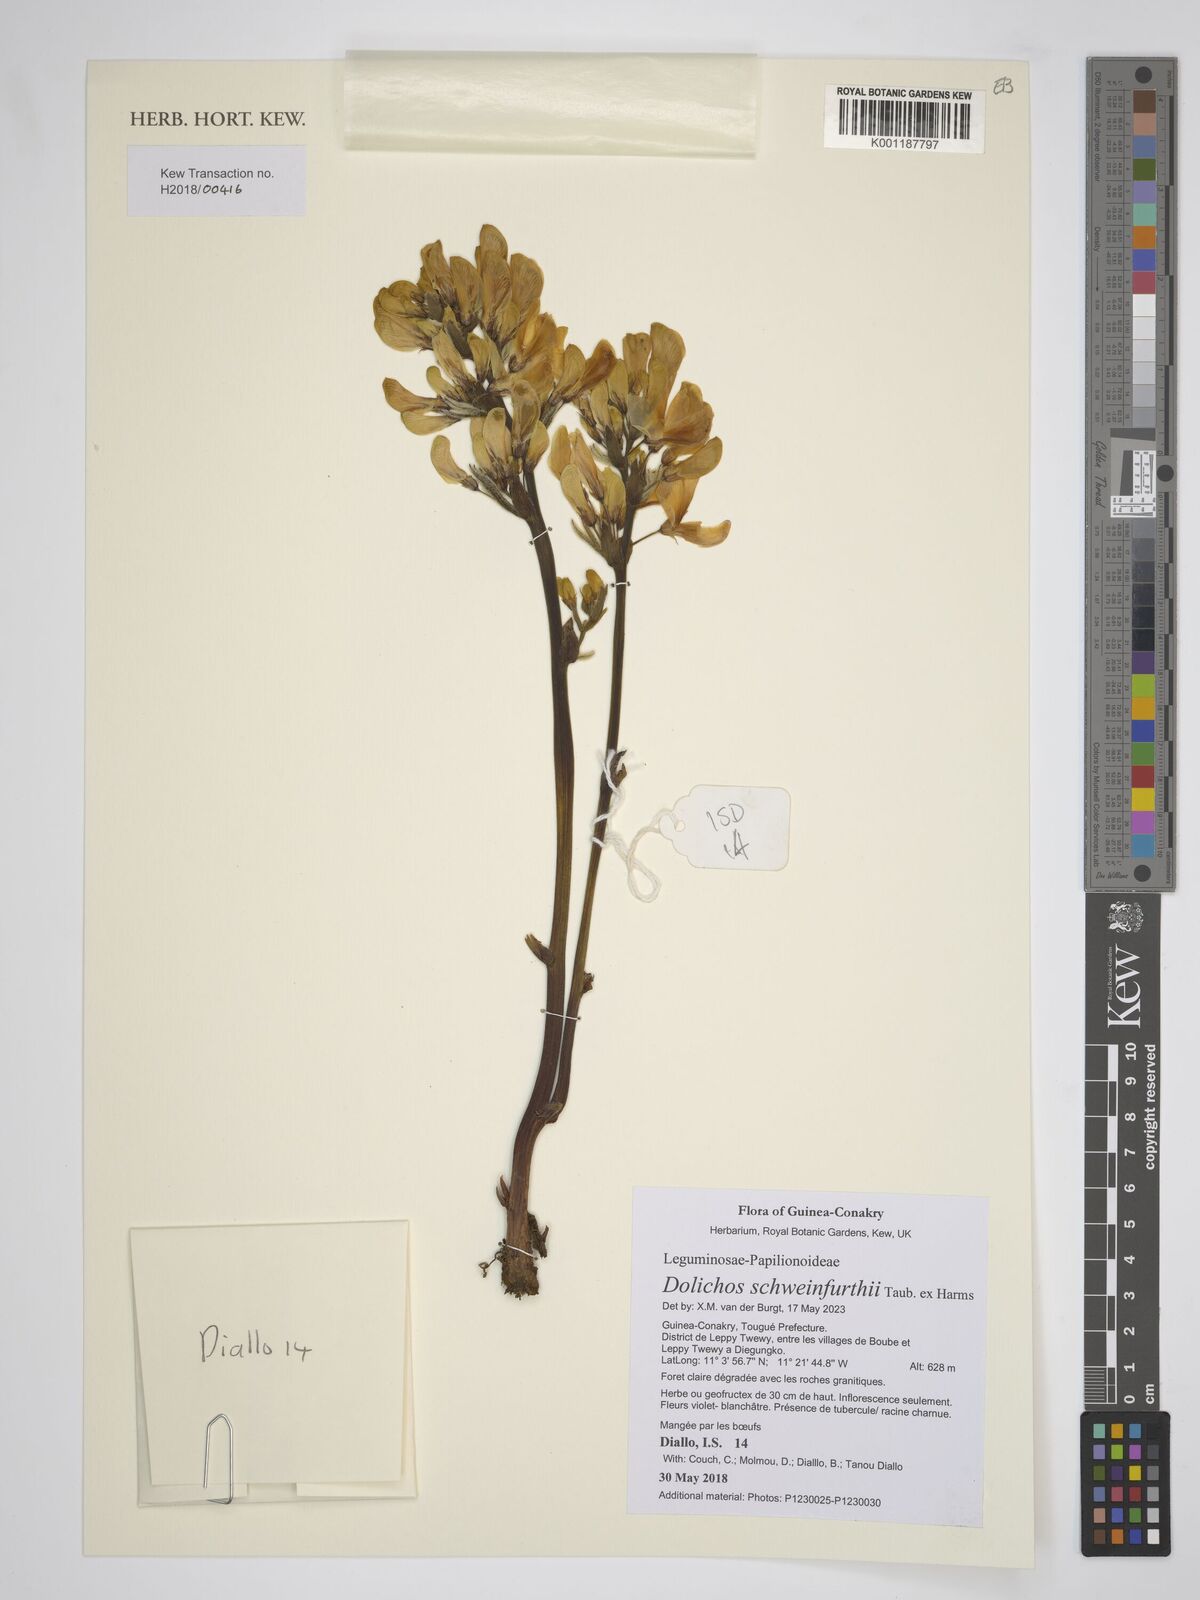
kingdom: Plantae
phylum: Tracheophyta
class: Magnoliopsida
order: Fabales
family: Fabaceae
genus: Dolichos
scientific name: Dolichos schweinfurthii
